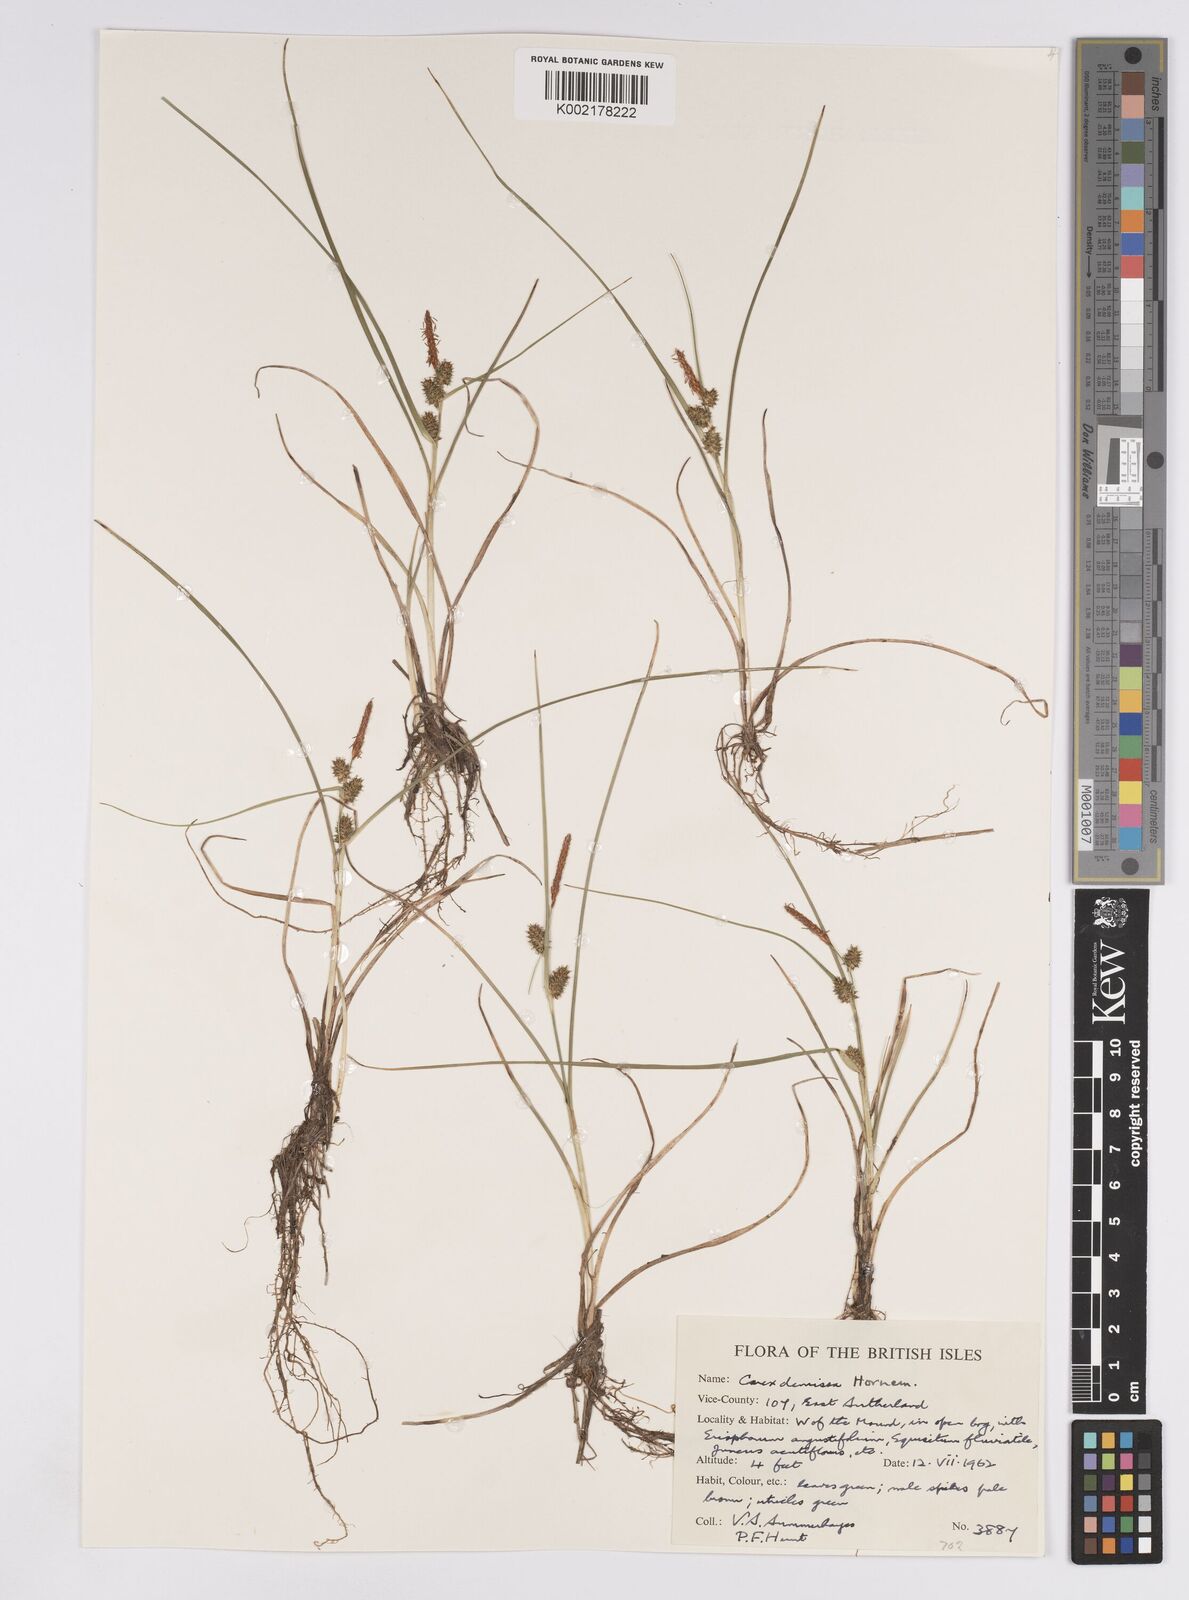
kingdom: Plantae
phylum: Tracheophyta
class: Liliopsida
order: Poales
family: Cyperaceae
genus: Carex
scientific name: Carex demissa
